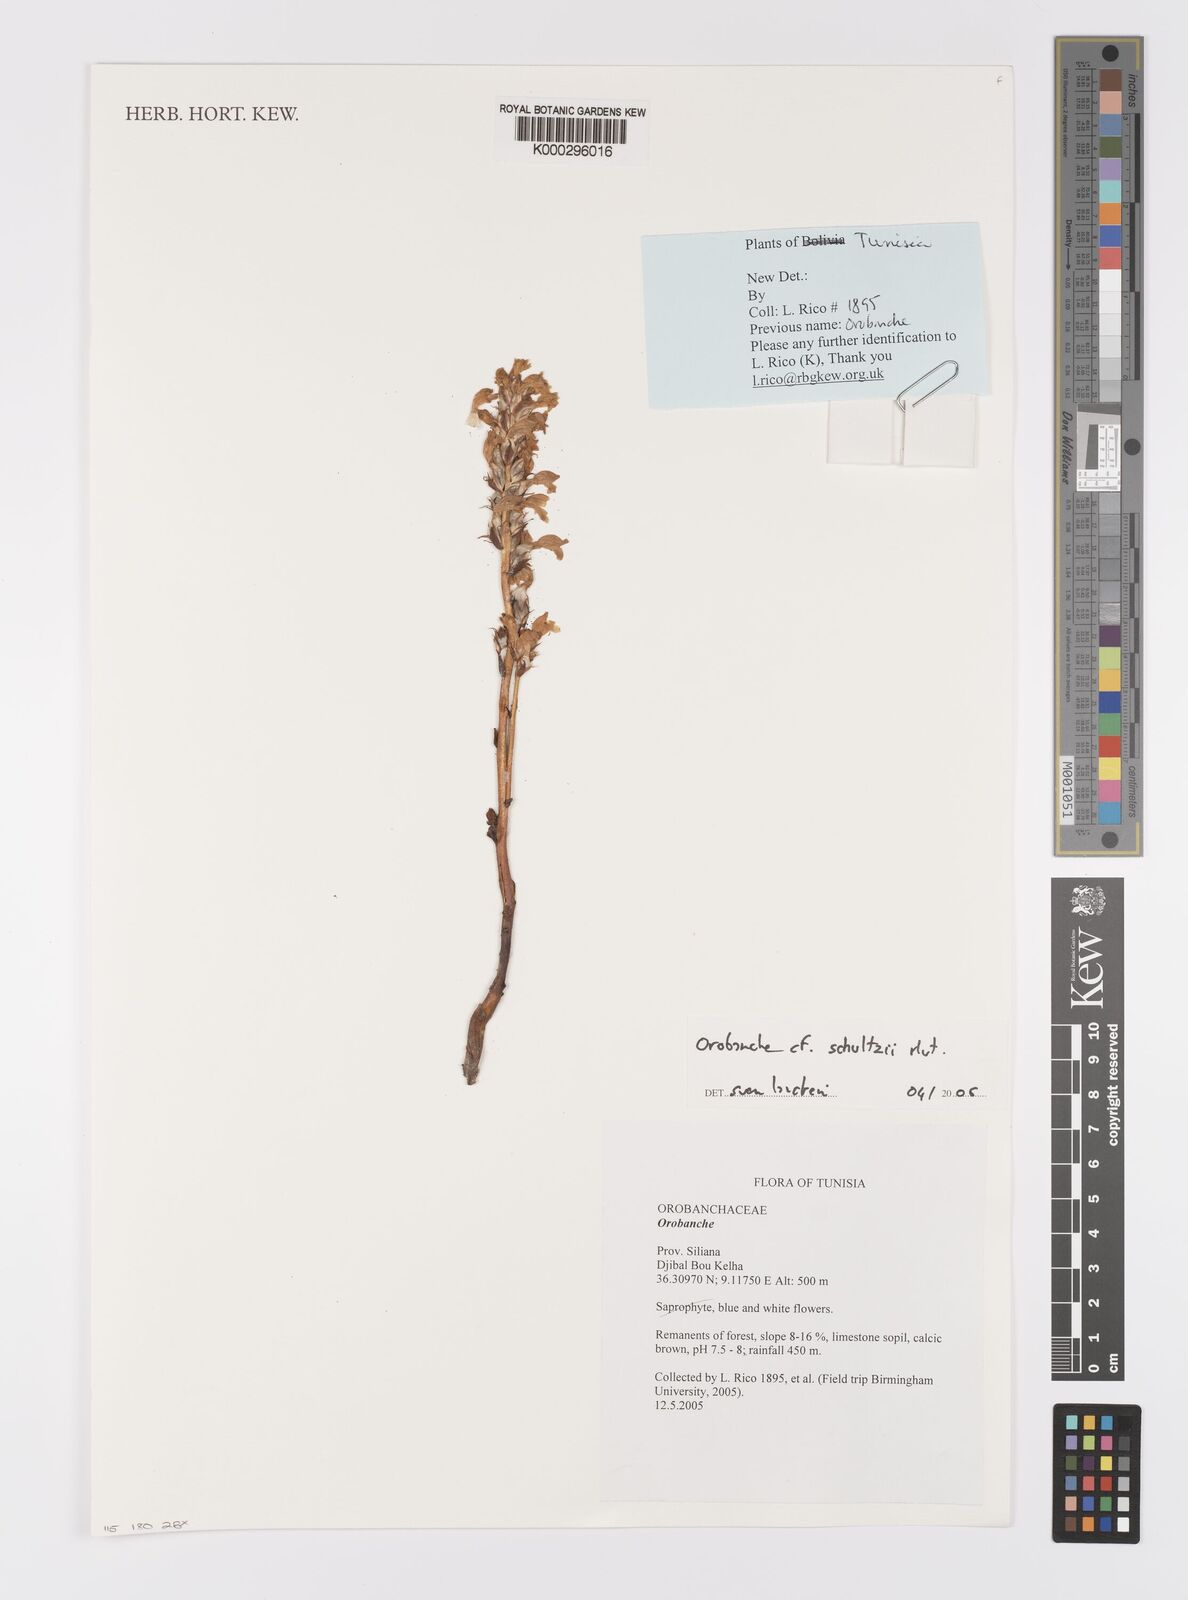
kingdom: Plantae
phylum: Tracheophyta
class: Magnoliopsida
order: Lamiales
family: Orobanchaceae
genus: Phelipanche
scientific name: Phelipanche schultzii
